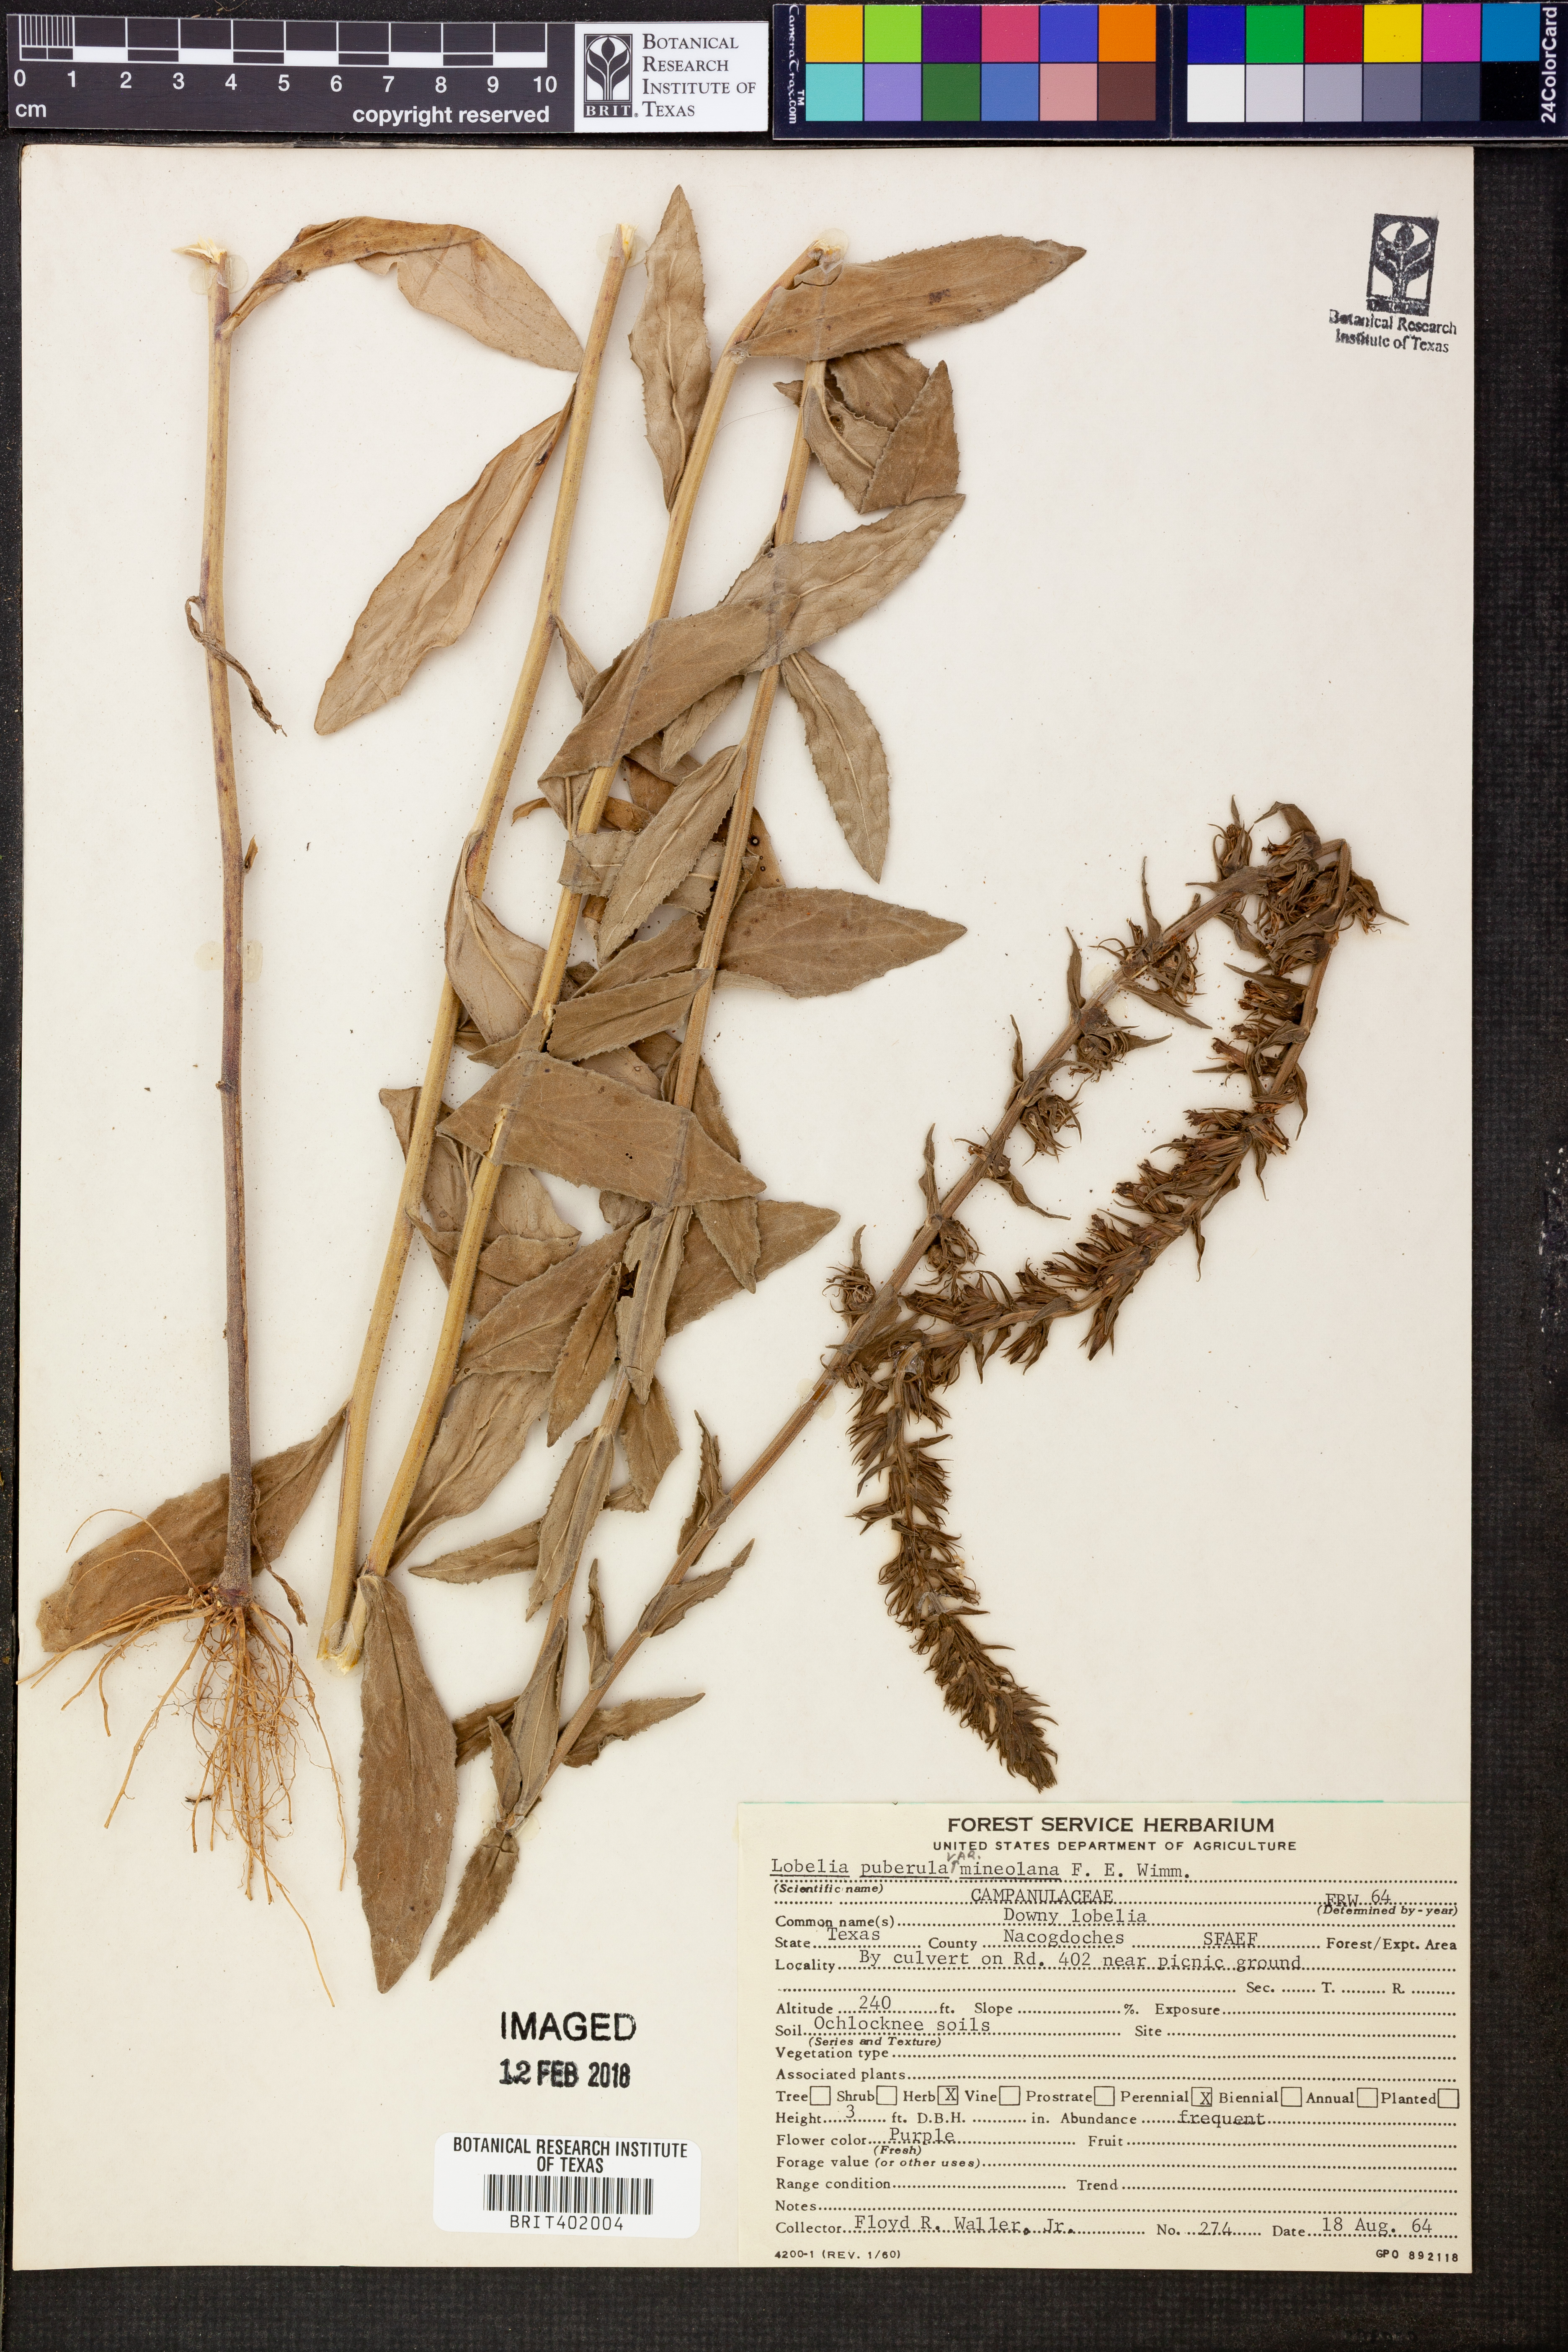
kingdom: Plantae
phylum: Tracheophyta
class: Magnoliopsida
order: Asterales
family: Campanulaceae
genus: Lobelia
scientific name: Lobelia puberula
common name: Purple dewdrop
